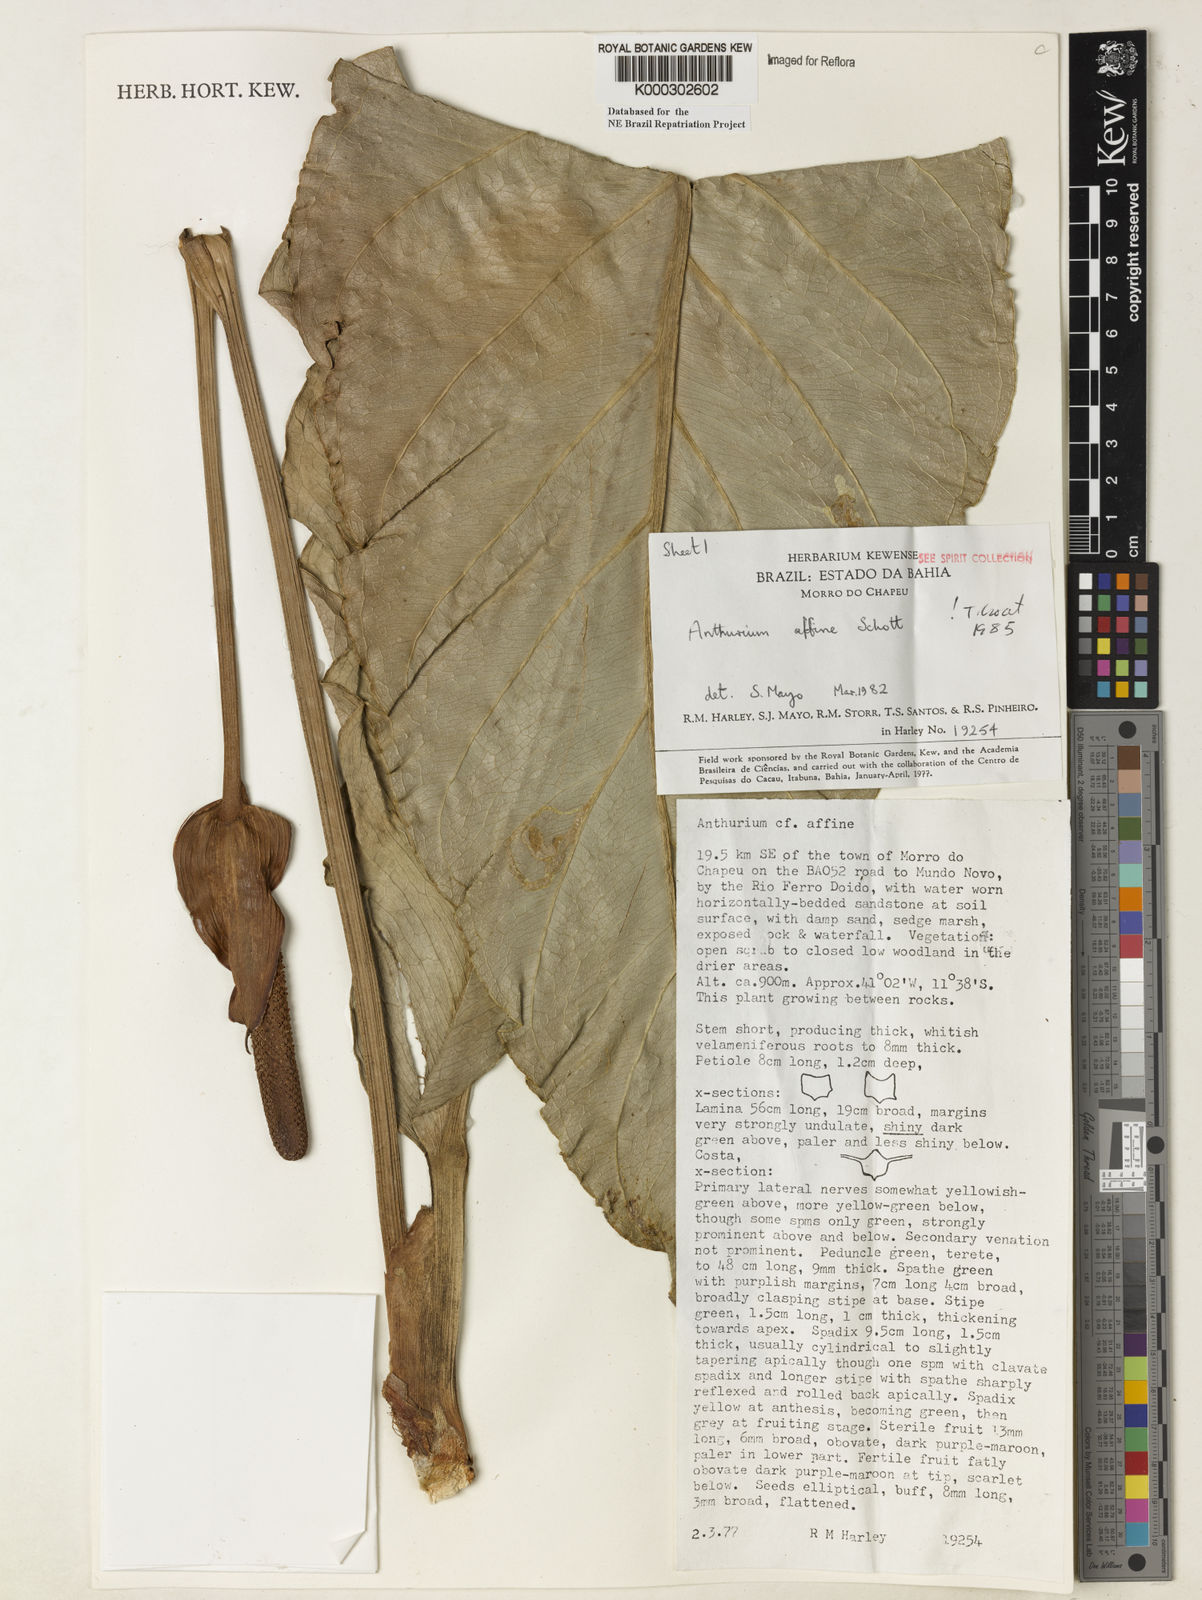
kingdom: Plantae
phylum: Tracheophyta
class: Liliopsida
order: Alismatales
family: Araceae
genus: Anthurium
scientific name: Anthurium affine
